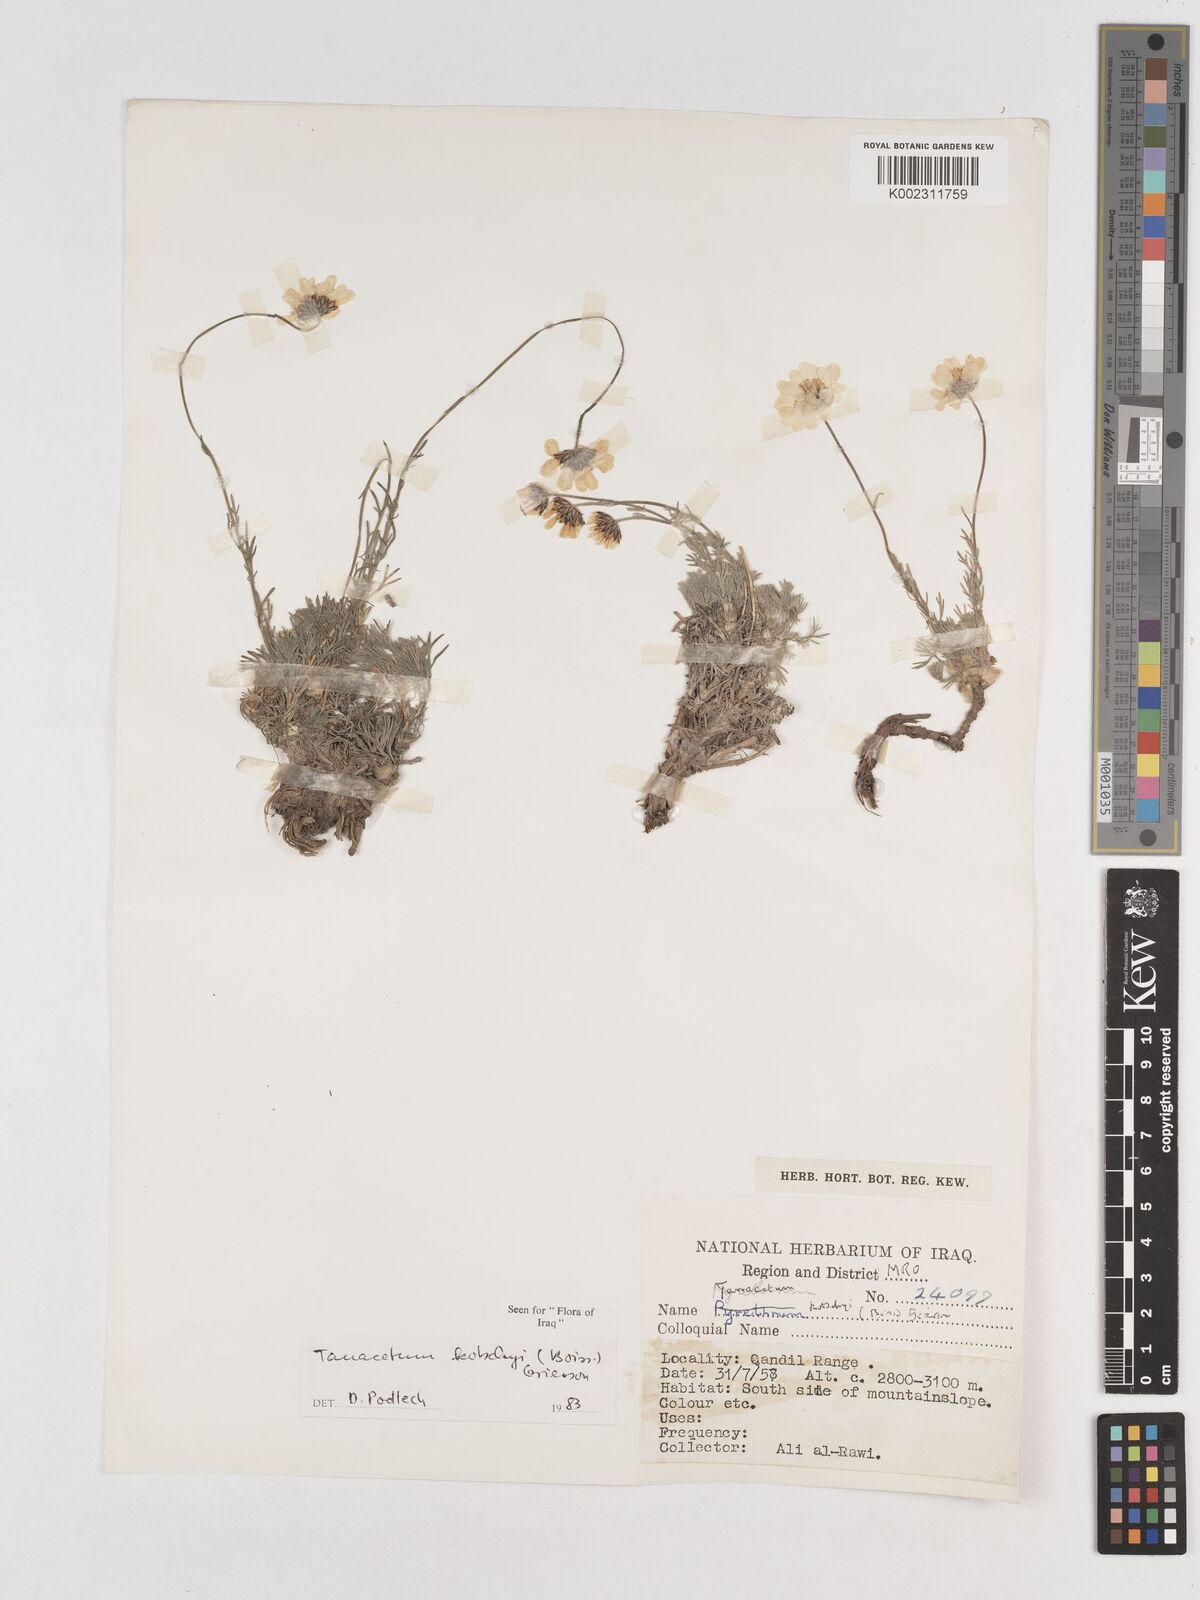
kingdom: Plantae
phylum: Tracheophyta
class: Magnoliopsida
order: Asterales
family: Asteraceae
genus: Tanacetum
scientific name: Tanacetum polycephalum
